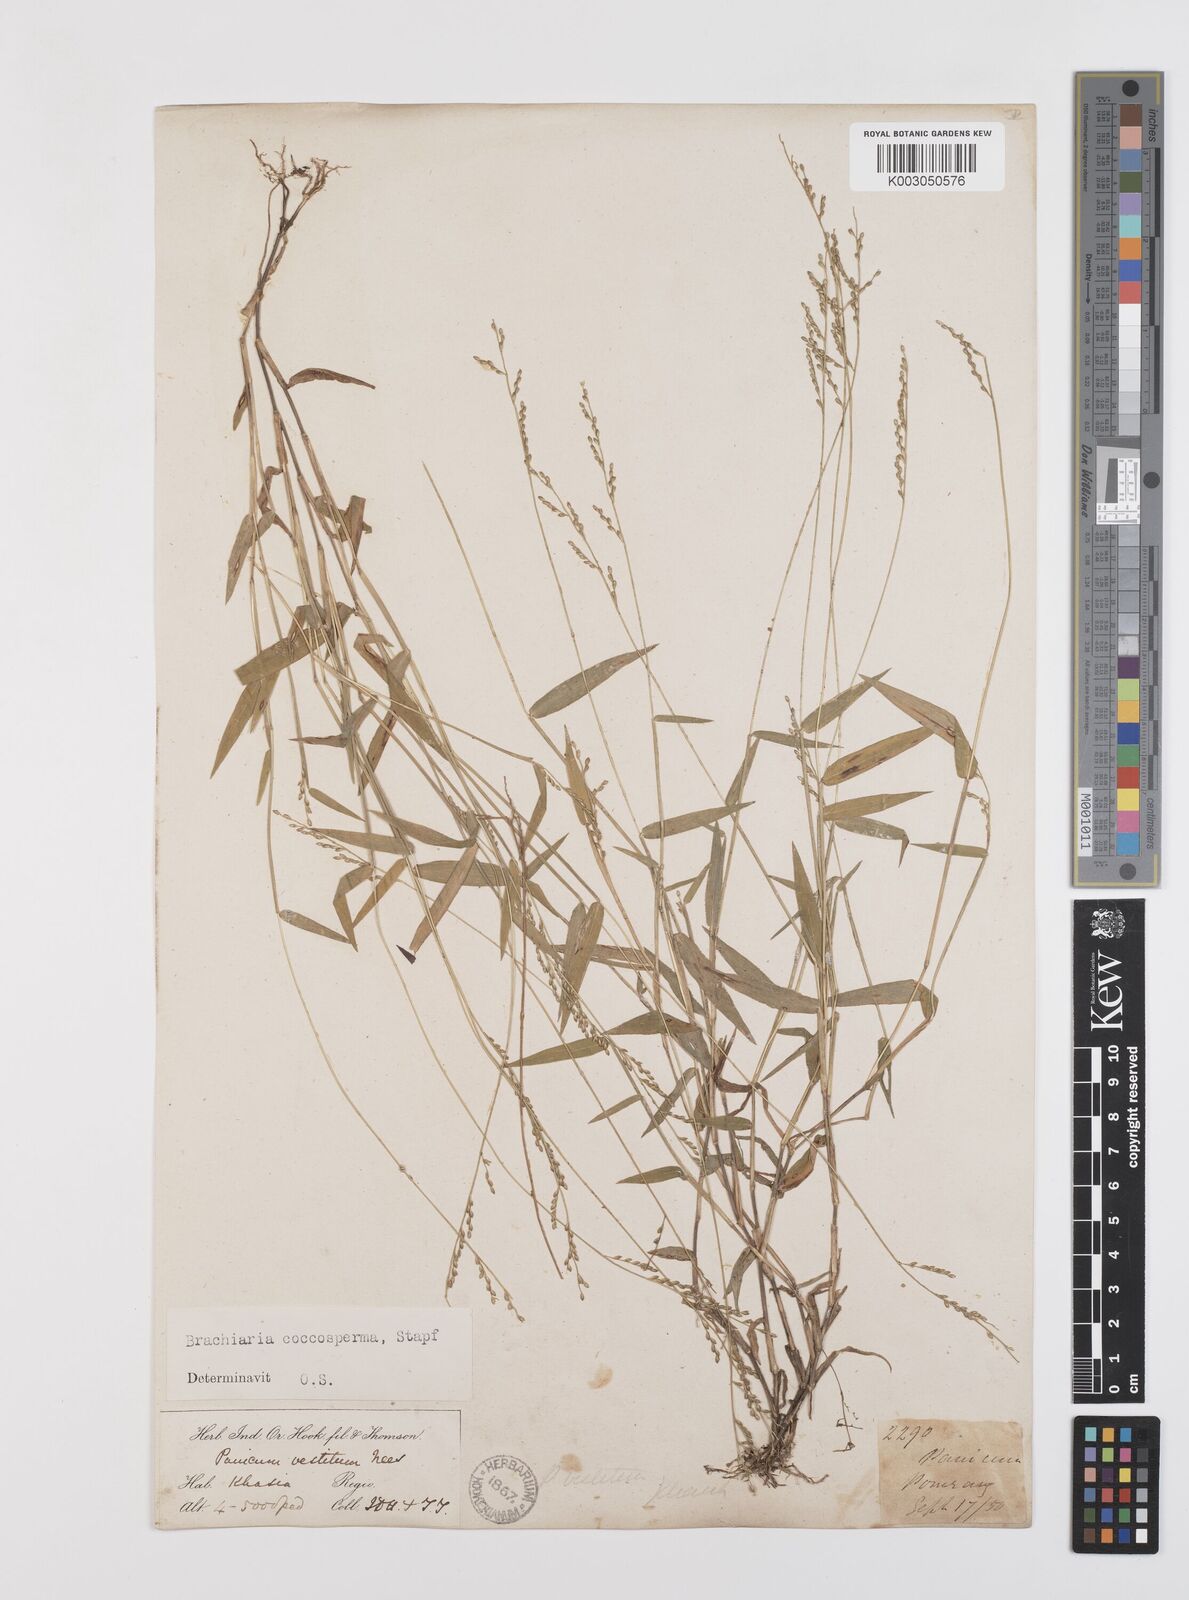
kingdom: Plantae
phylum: Tracheophyta
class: Liliopsida
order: Poales
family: Poaceae
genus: Urochloa
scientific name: Urochloa villosa
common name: Hairy signalgrass
